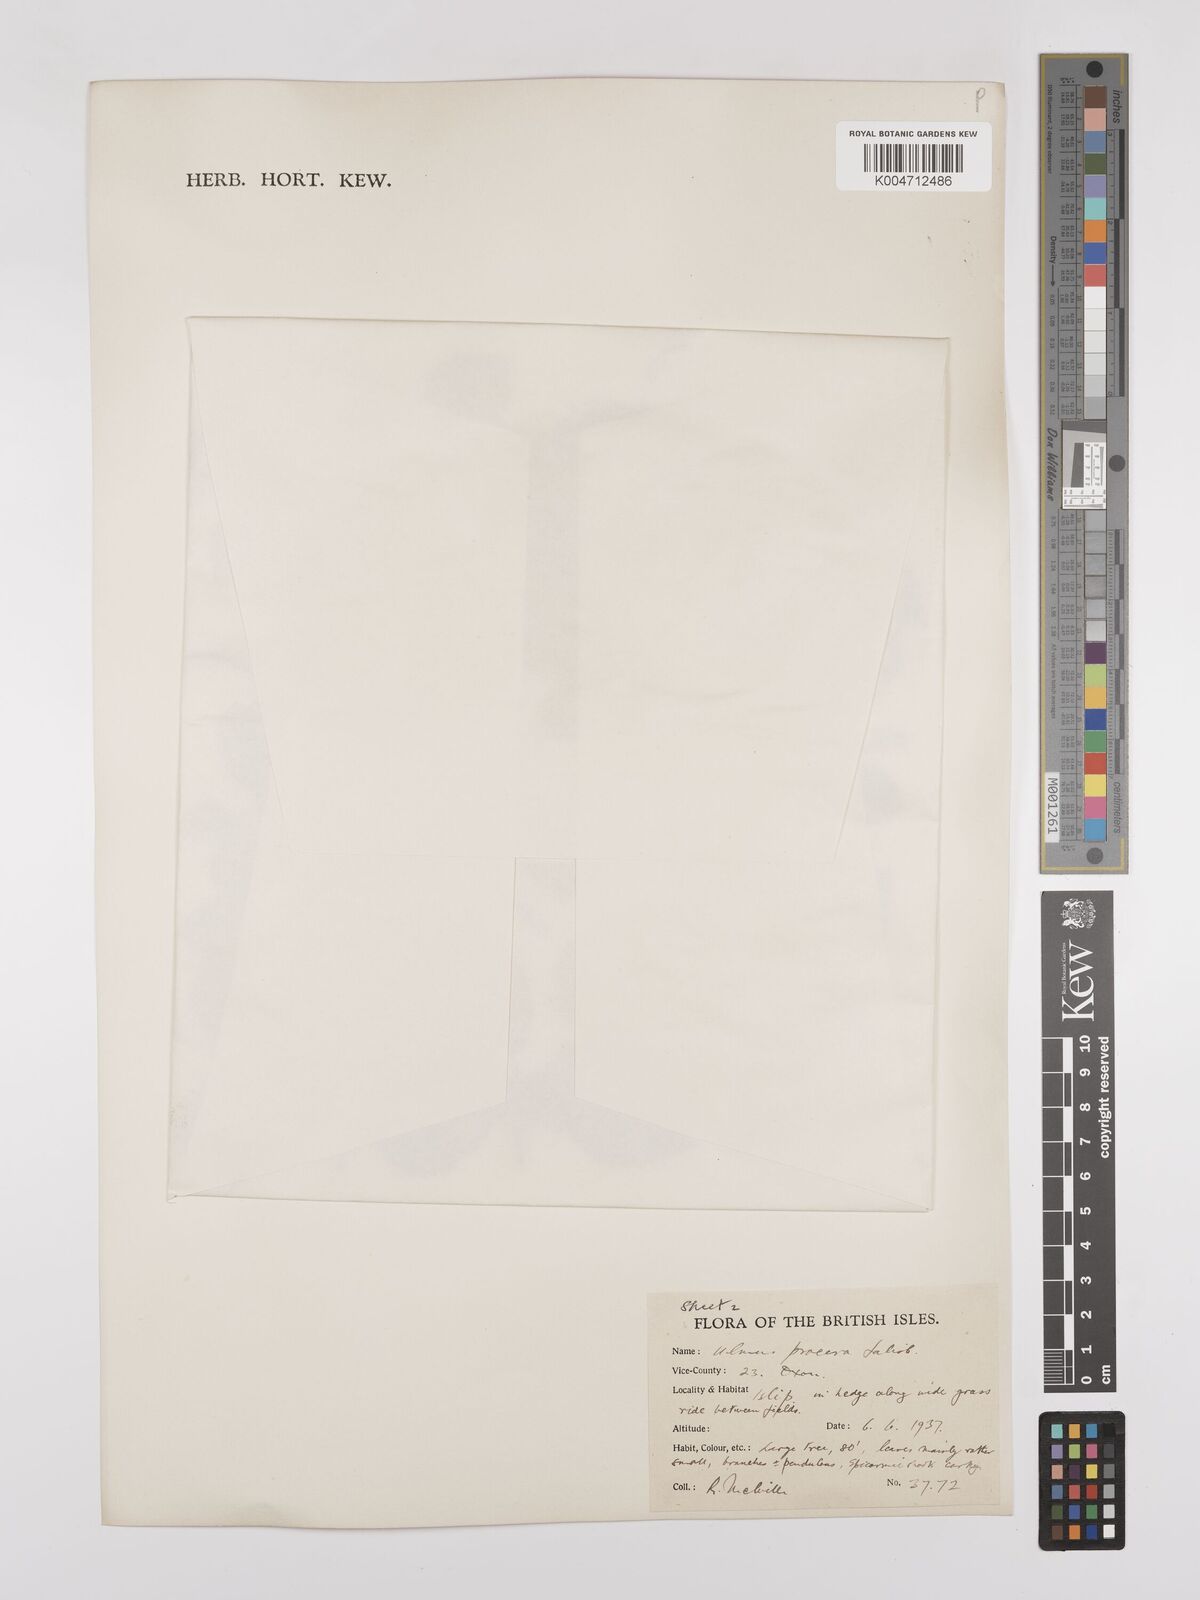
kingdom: Plantae
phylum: Tracheophyta
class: Magnoliopsida
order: Rosales
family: Ulmaceae
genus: Ulmus
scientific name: Ulmus minor
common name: Small-leaved elm
